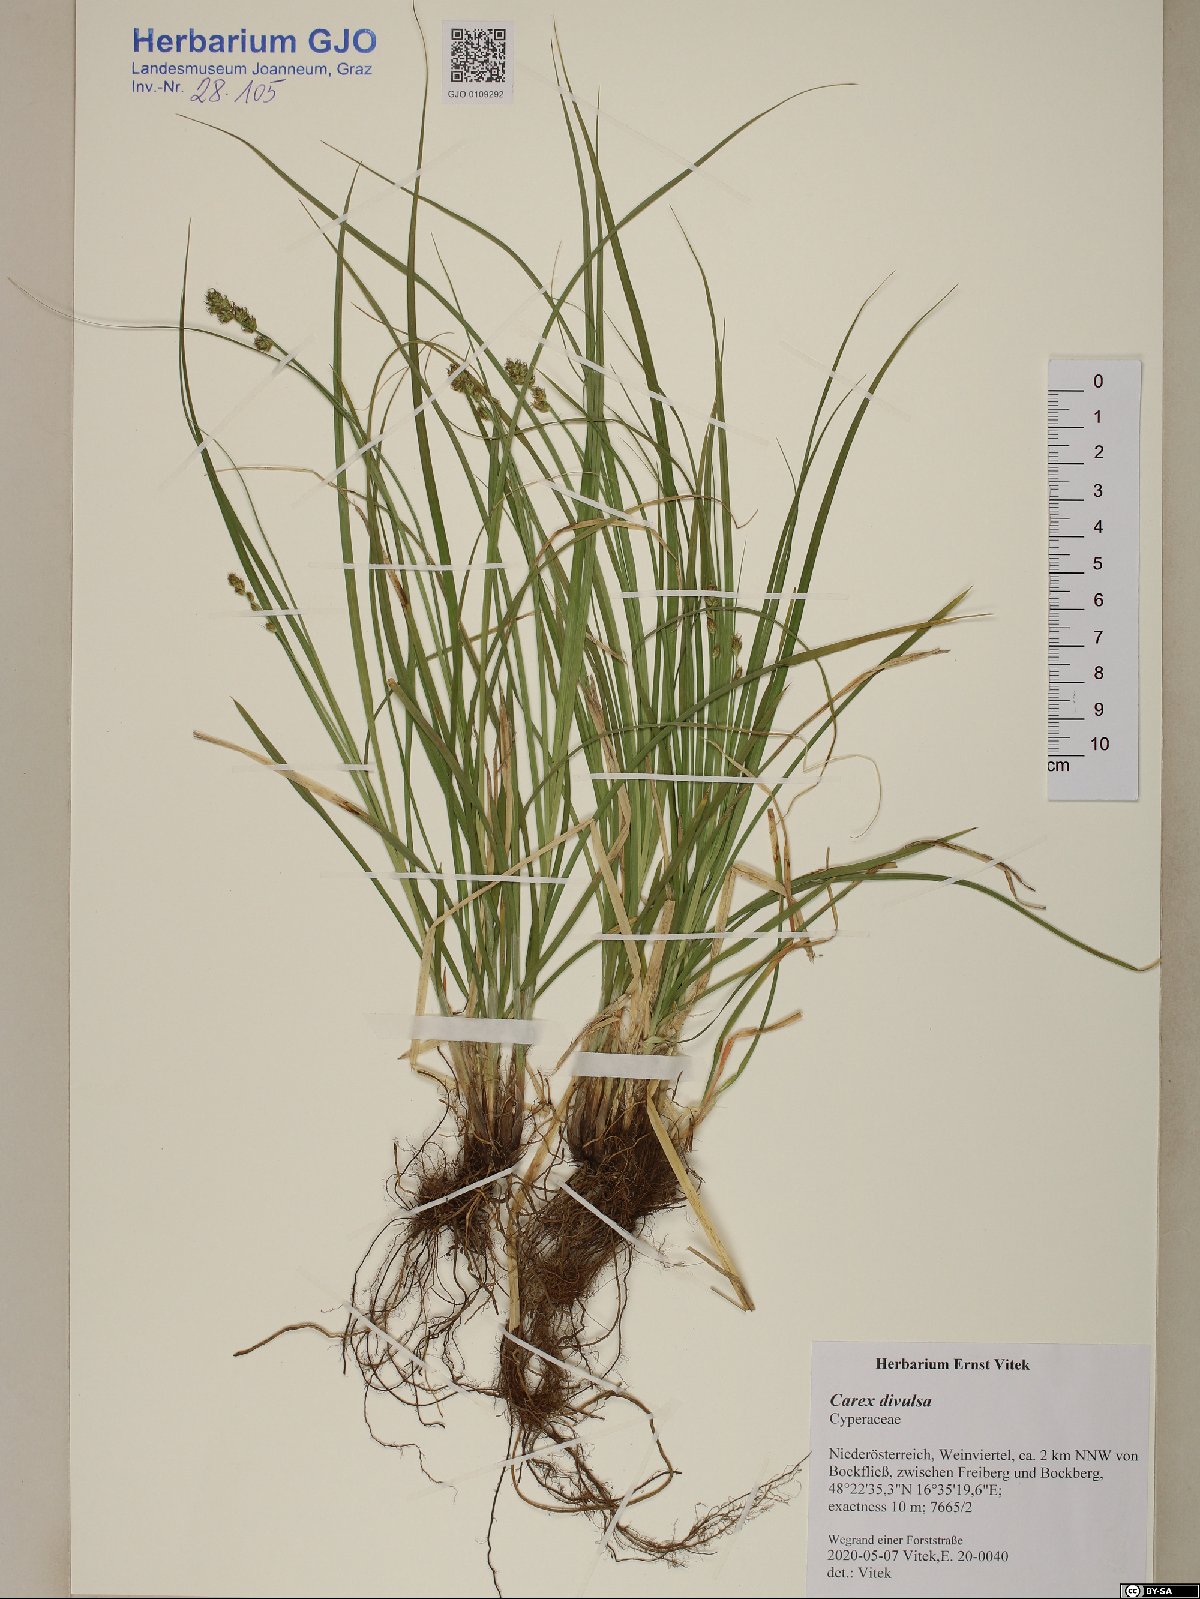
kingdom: Plantae
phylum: Tracheophyta
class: Magnoliopsida
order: Caryophyllales
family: Cactaceae
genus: Rhipsalis
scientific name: Rhipsalis neves-armondii
